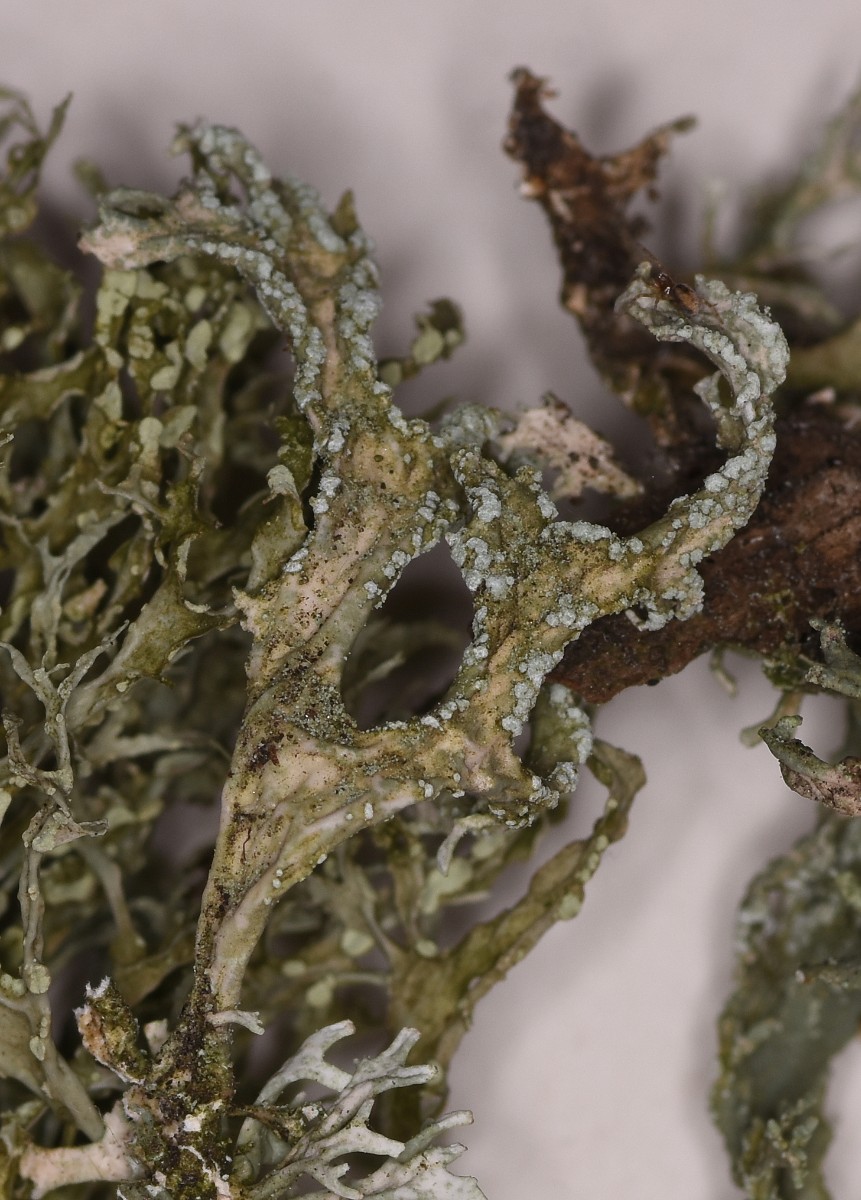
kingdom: Fungi
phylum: Ascomycota
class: Lecanoromycetes
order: Lecanorales
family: Parmeliaceae
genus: Evernia
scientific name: Evernia prunastri
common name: almindelig slåenlav
